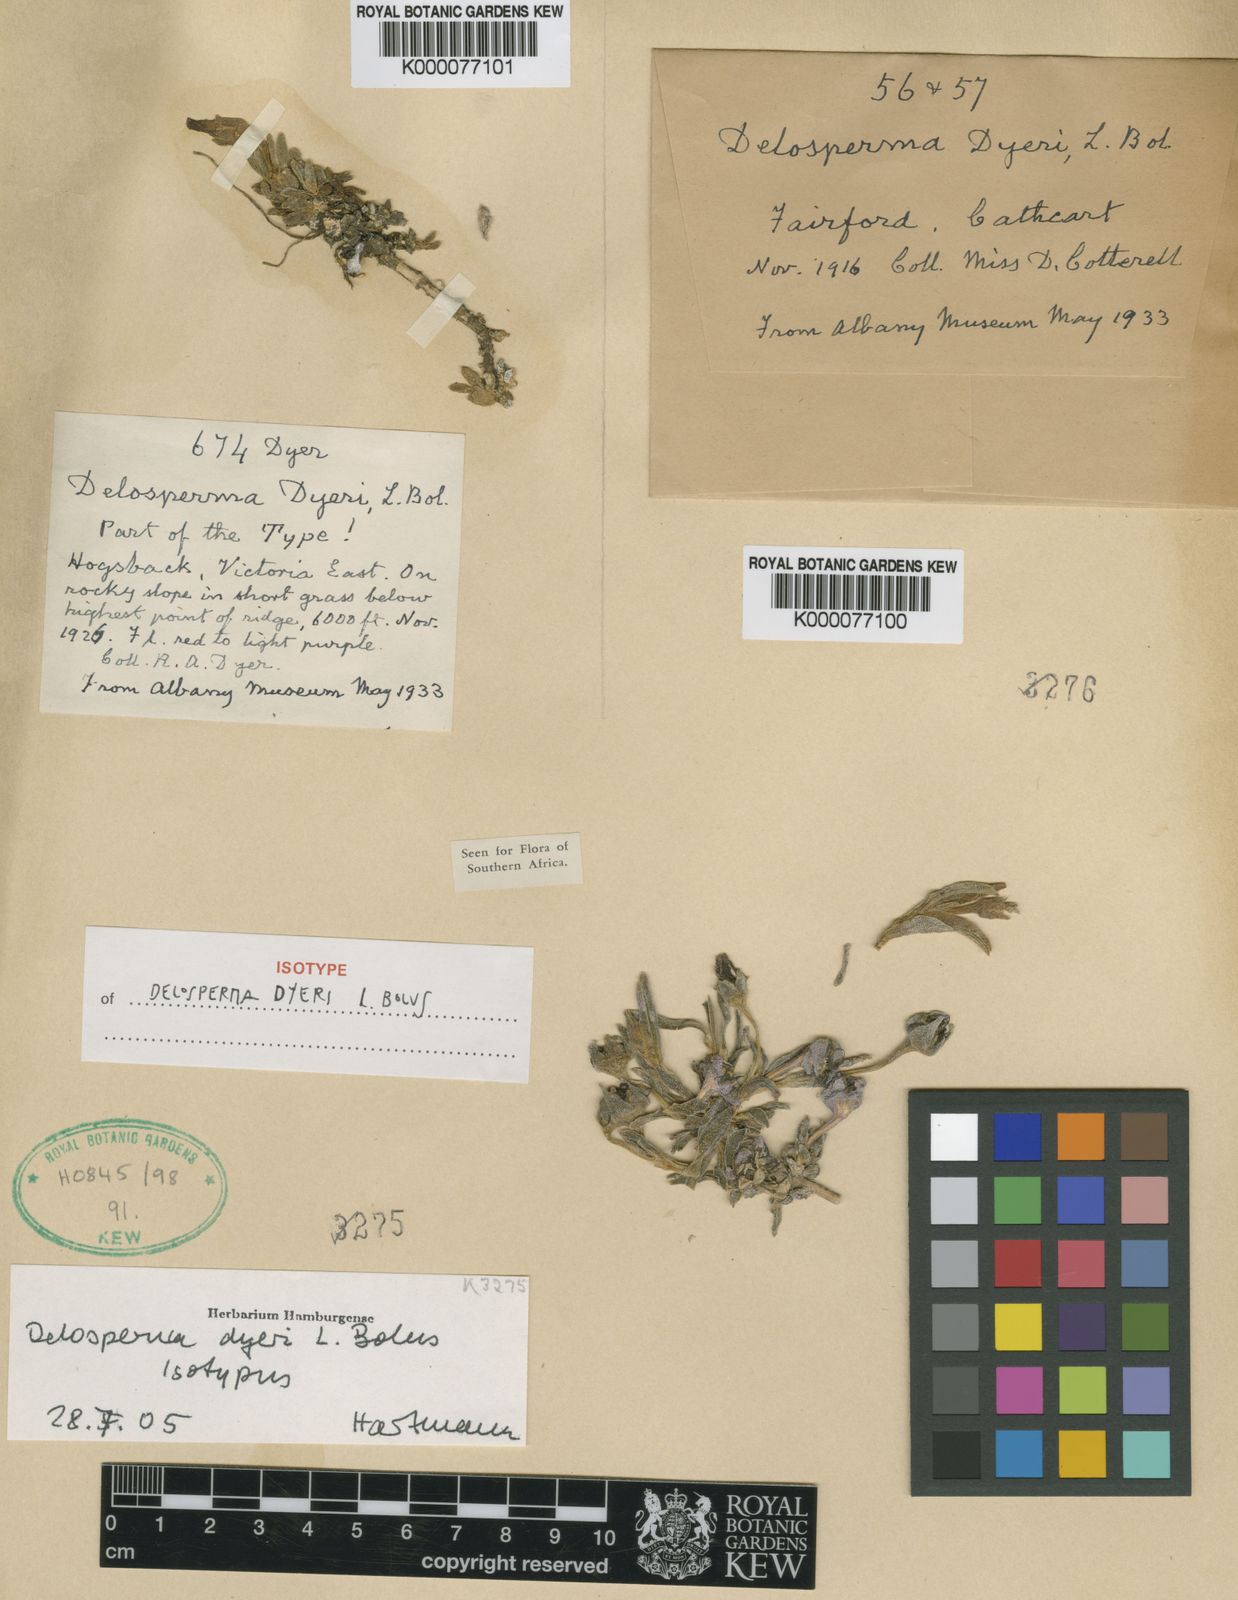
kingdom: Plantae
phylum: Tracheophyta
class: Magnoliopsida
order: Caryophyllales
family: Aizoaceae
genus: Delosperma
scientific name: Delosperma dyeri
